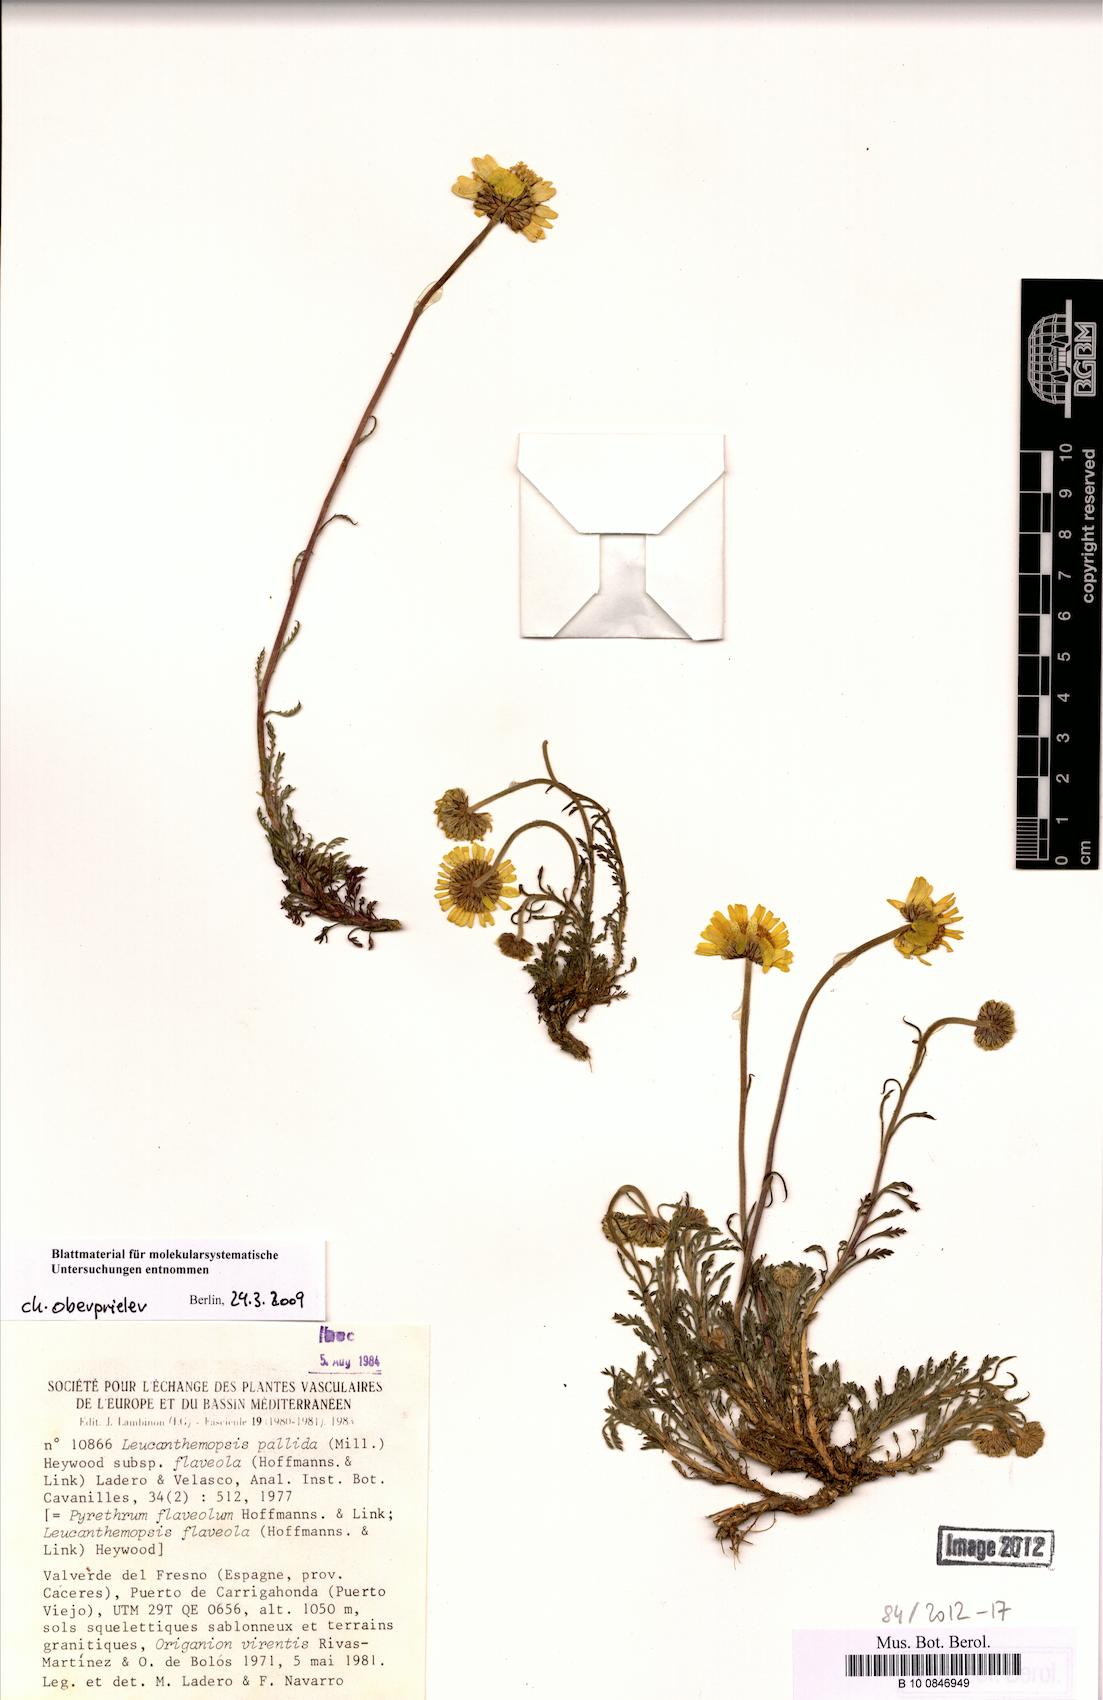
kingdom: Plantae
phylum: Tracheophyta
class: Magnoliopsida
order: Asterales
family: Asteraceae
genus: Leucanthemopsis
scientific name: Leucanthemopsis flaveola
